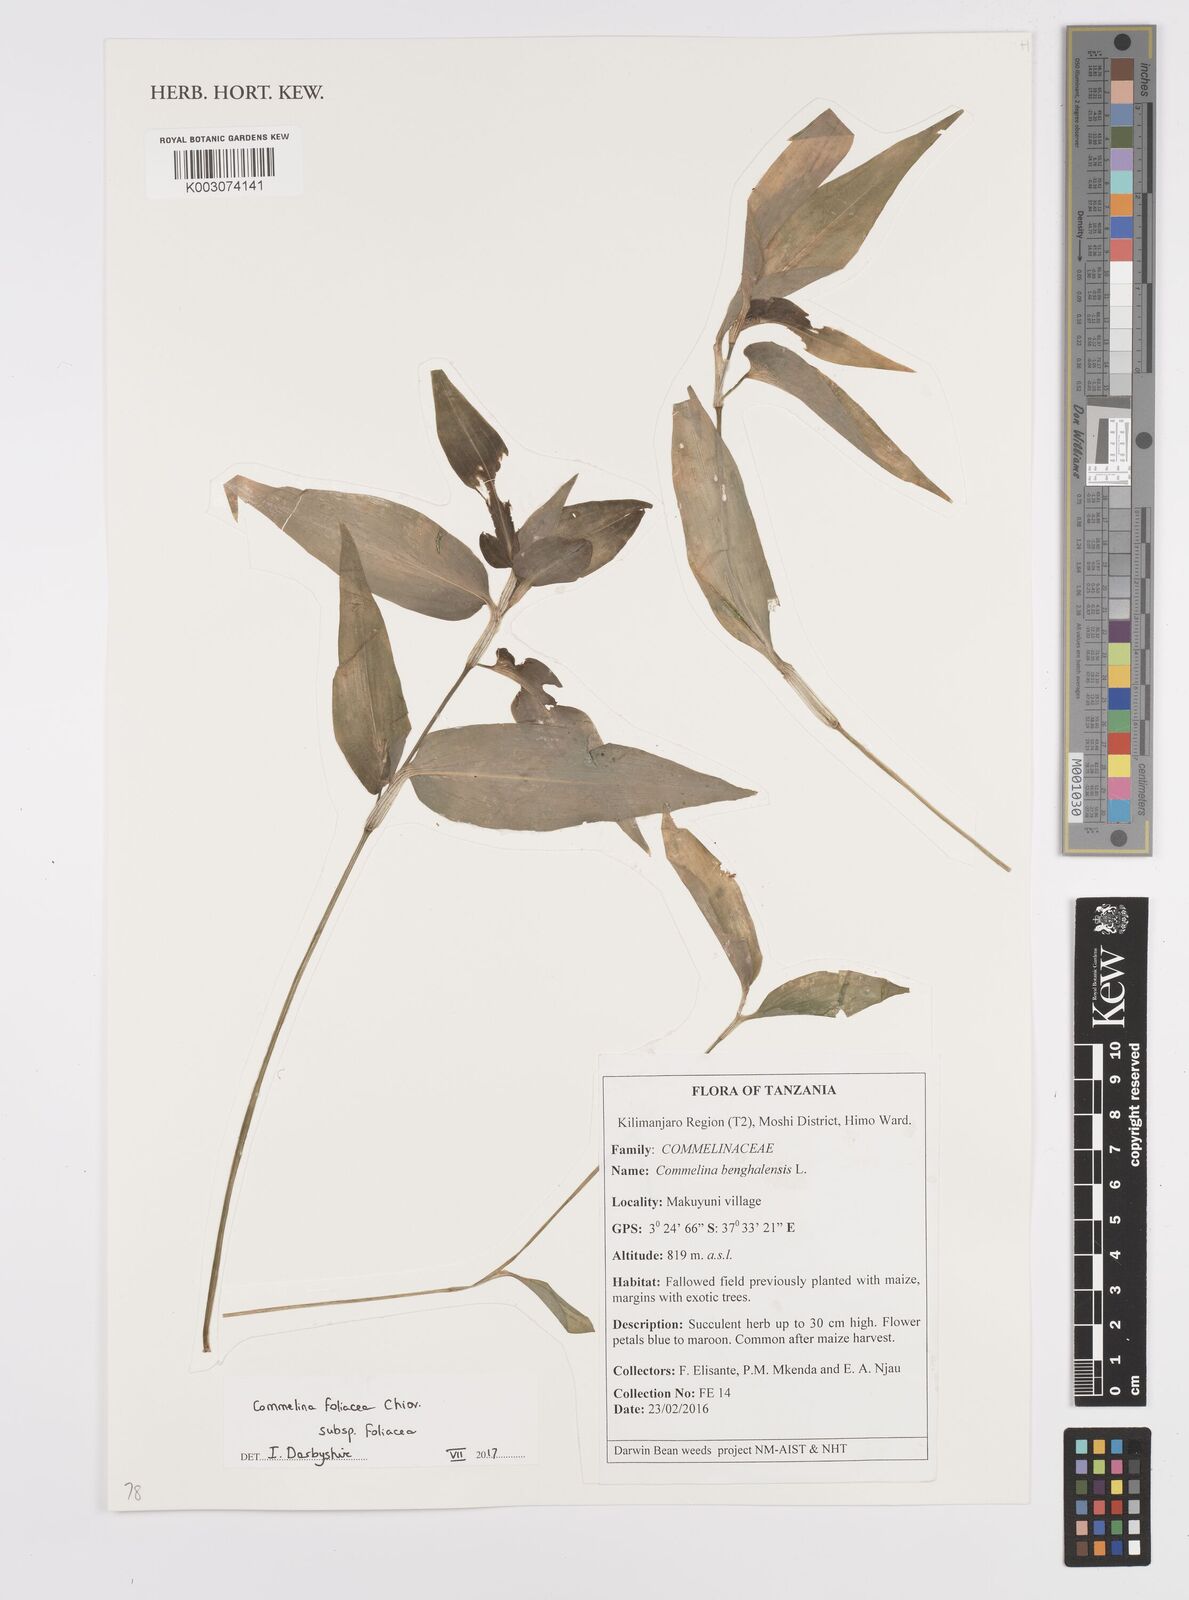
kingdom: Plantae
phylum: Tracheophyta
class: Liliopsida
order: Commelinales
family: Commelinaceae
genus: Commelina
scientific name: Commelina foliacea
